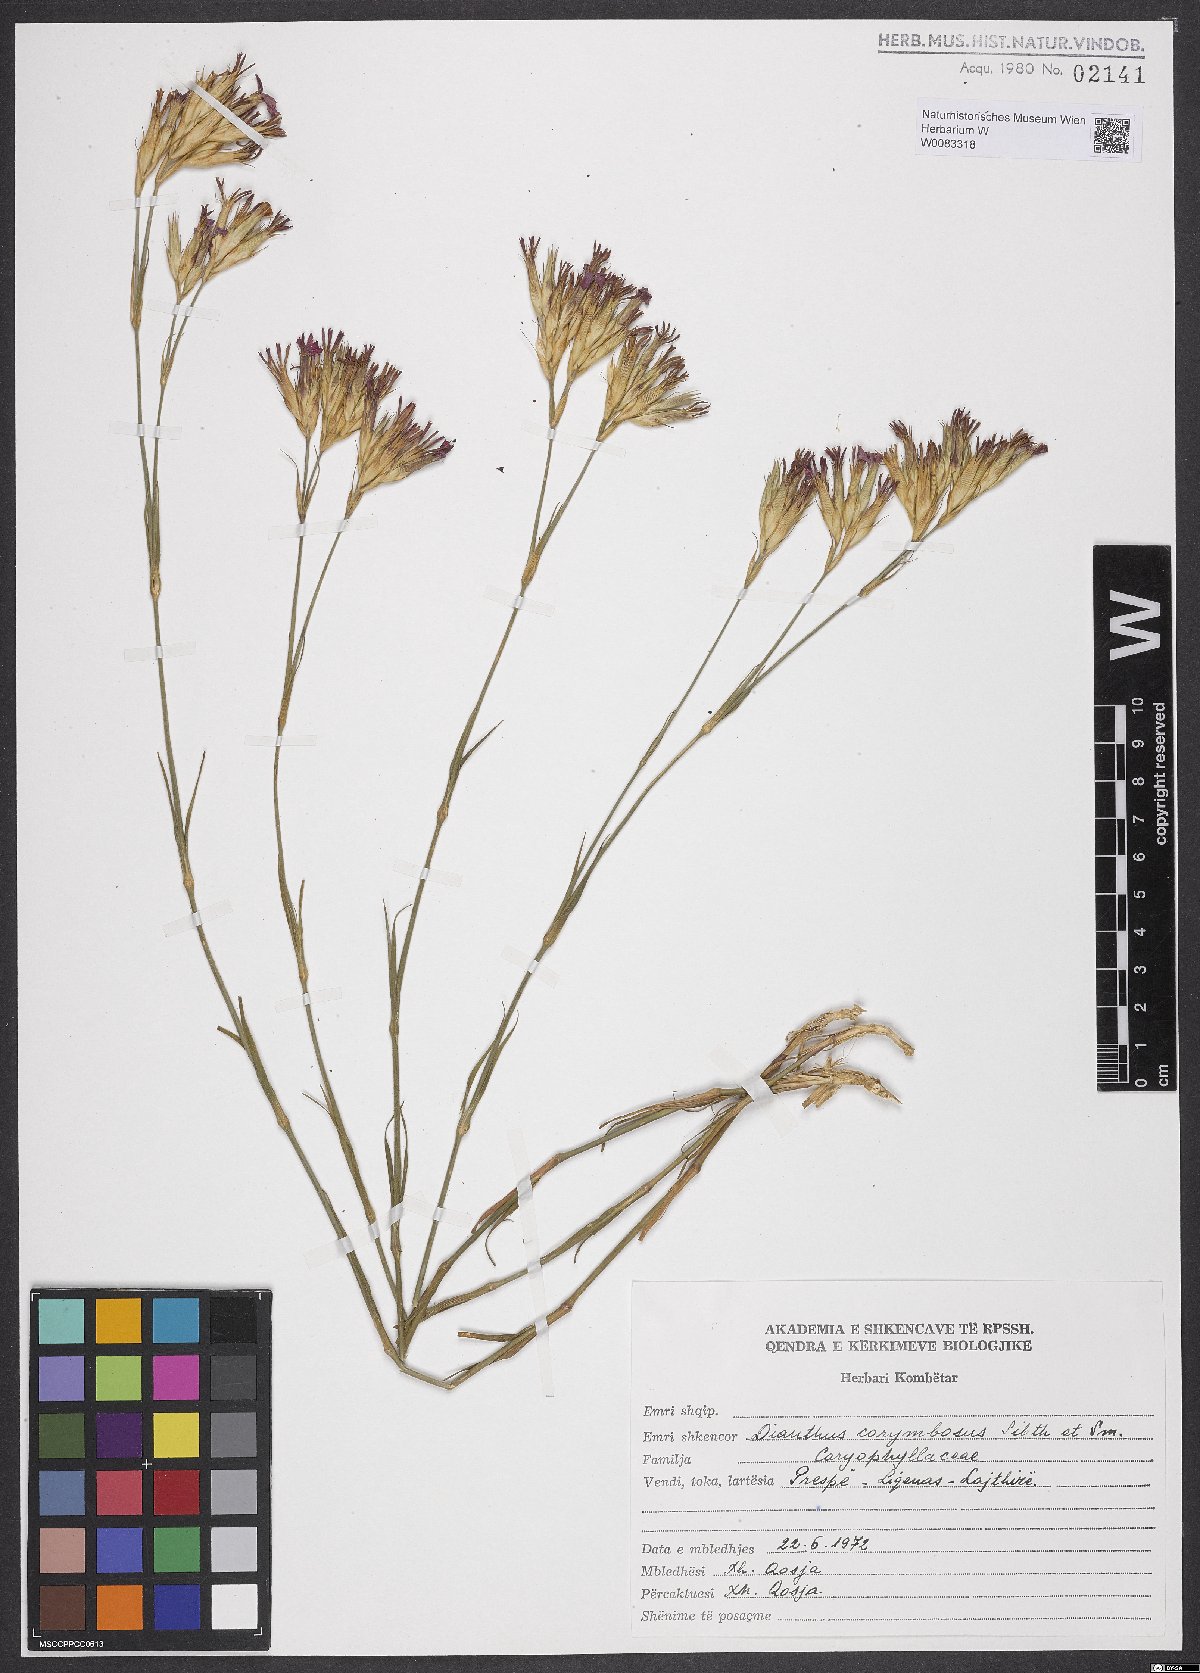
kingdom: Plantae
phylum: Tracheophyta
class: Magnoliopsida
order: Caryophyllales
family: Caryophyllaceae
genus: Dianthus
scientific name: Dianthus corymbosus
